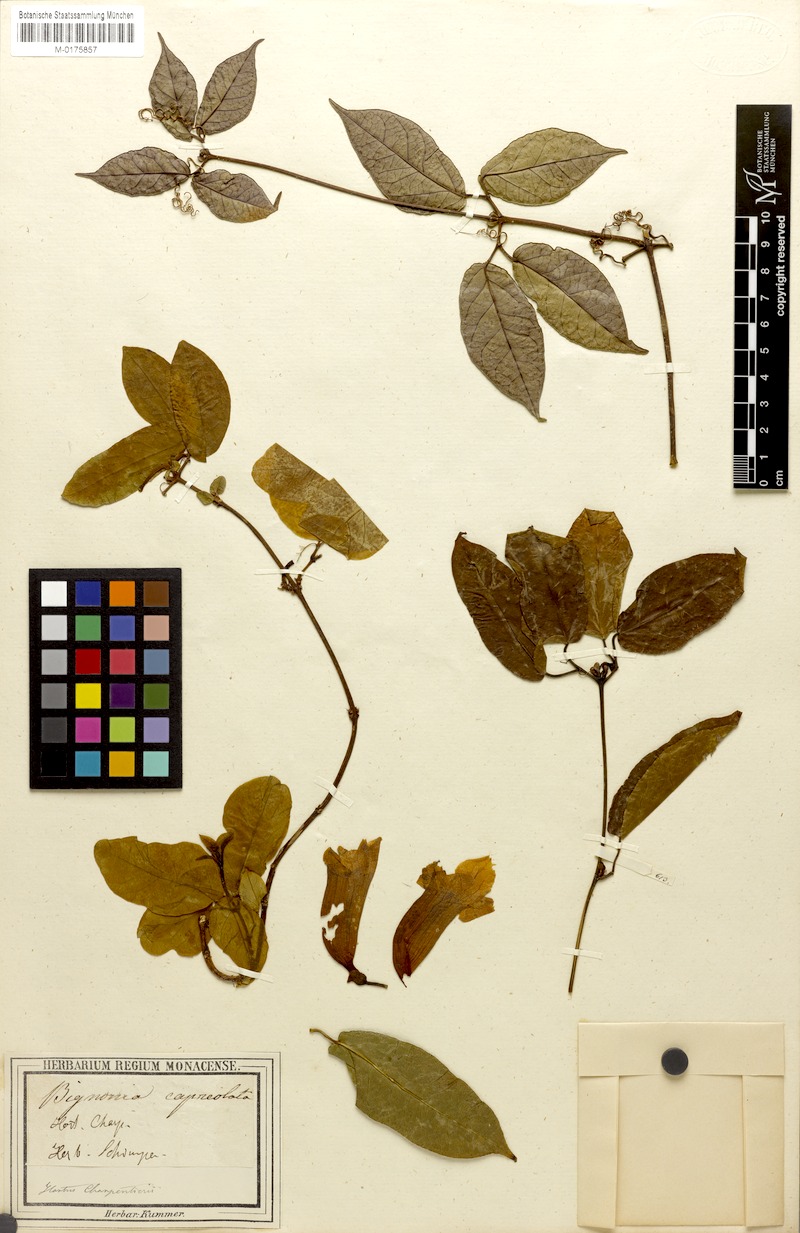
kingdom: Plantae
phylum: Tracheophyta
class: Magnoliopsida
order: Lamiales
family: Bignoniaceae
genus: Bignonia
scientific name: Bignonia capreolata
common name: Crossvine
